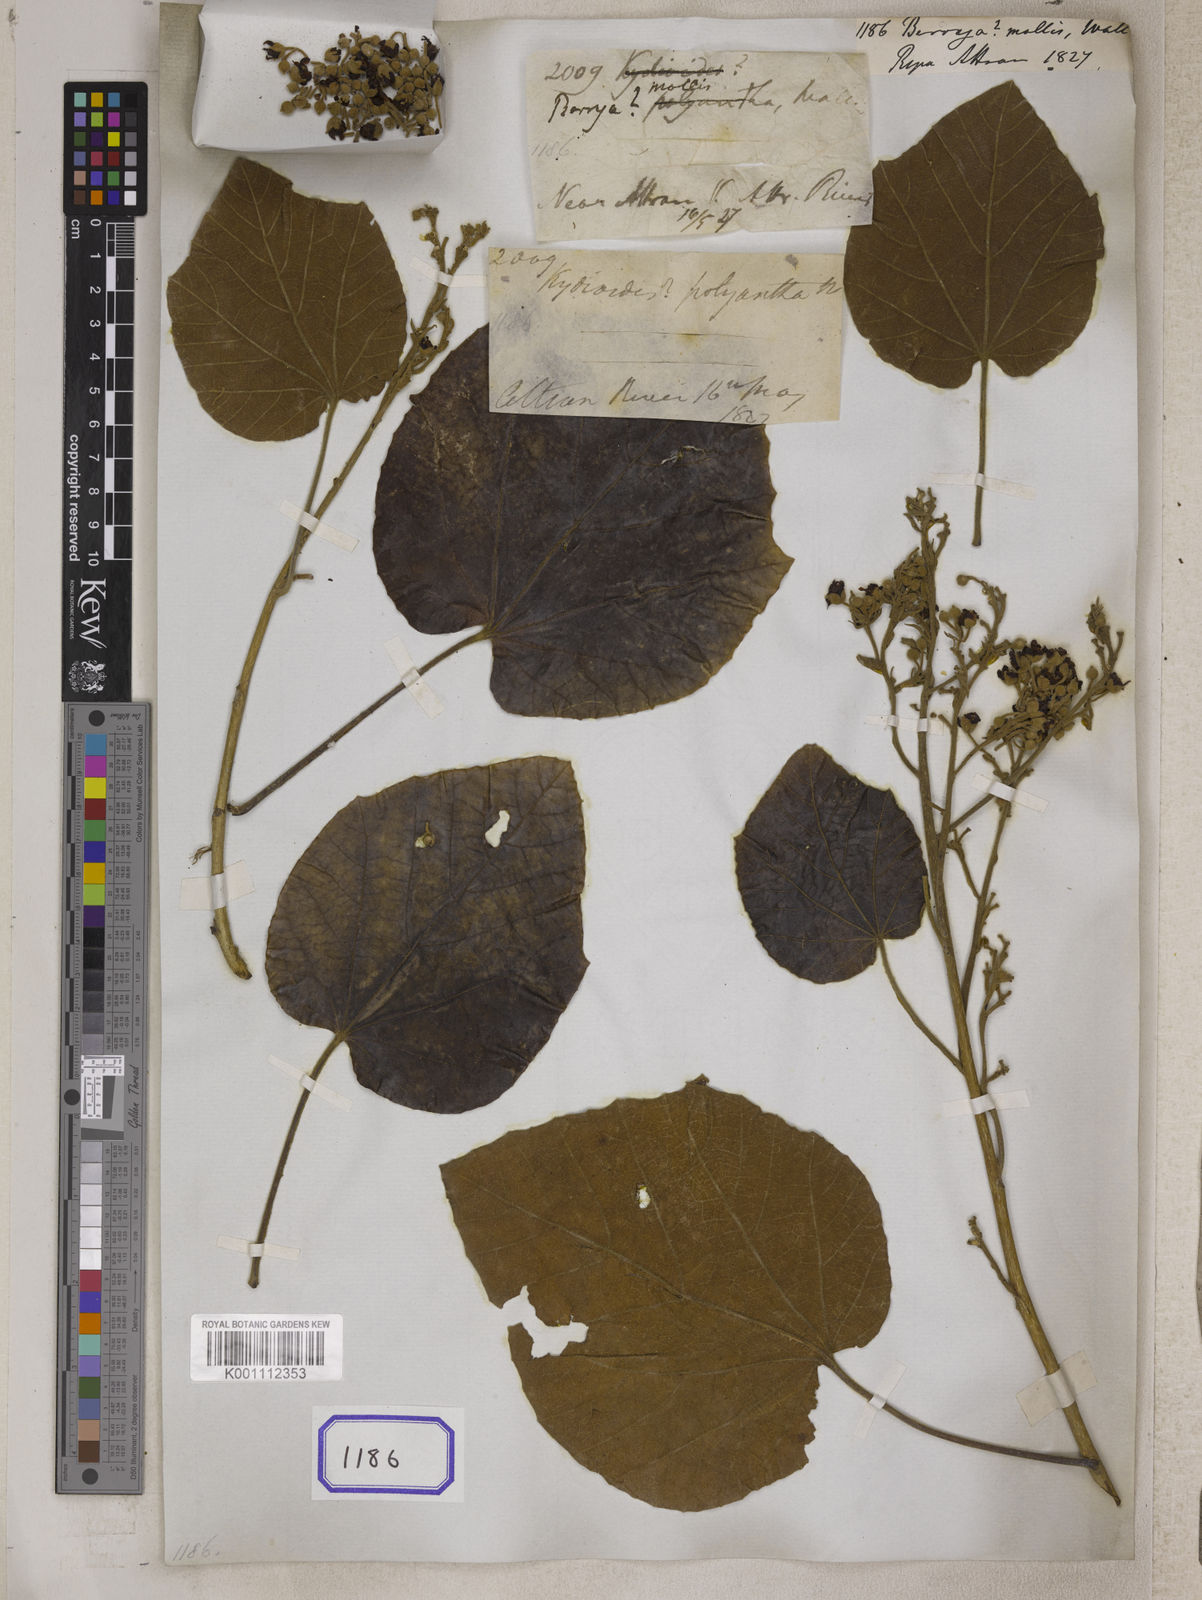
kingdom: Plantae
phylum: Tracheophyta
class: Magnoliopsida
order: Malvales
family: Malvaceae
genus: Berrya
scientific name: Berrya
